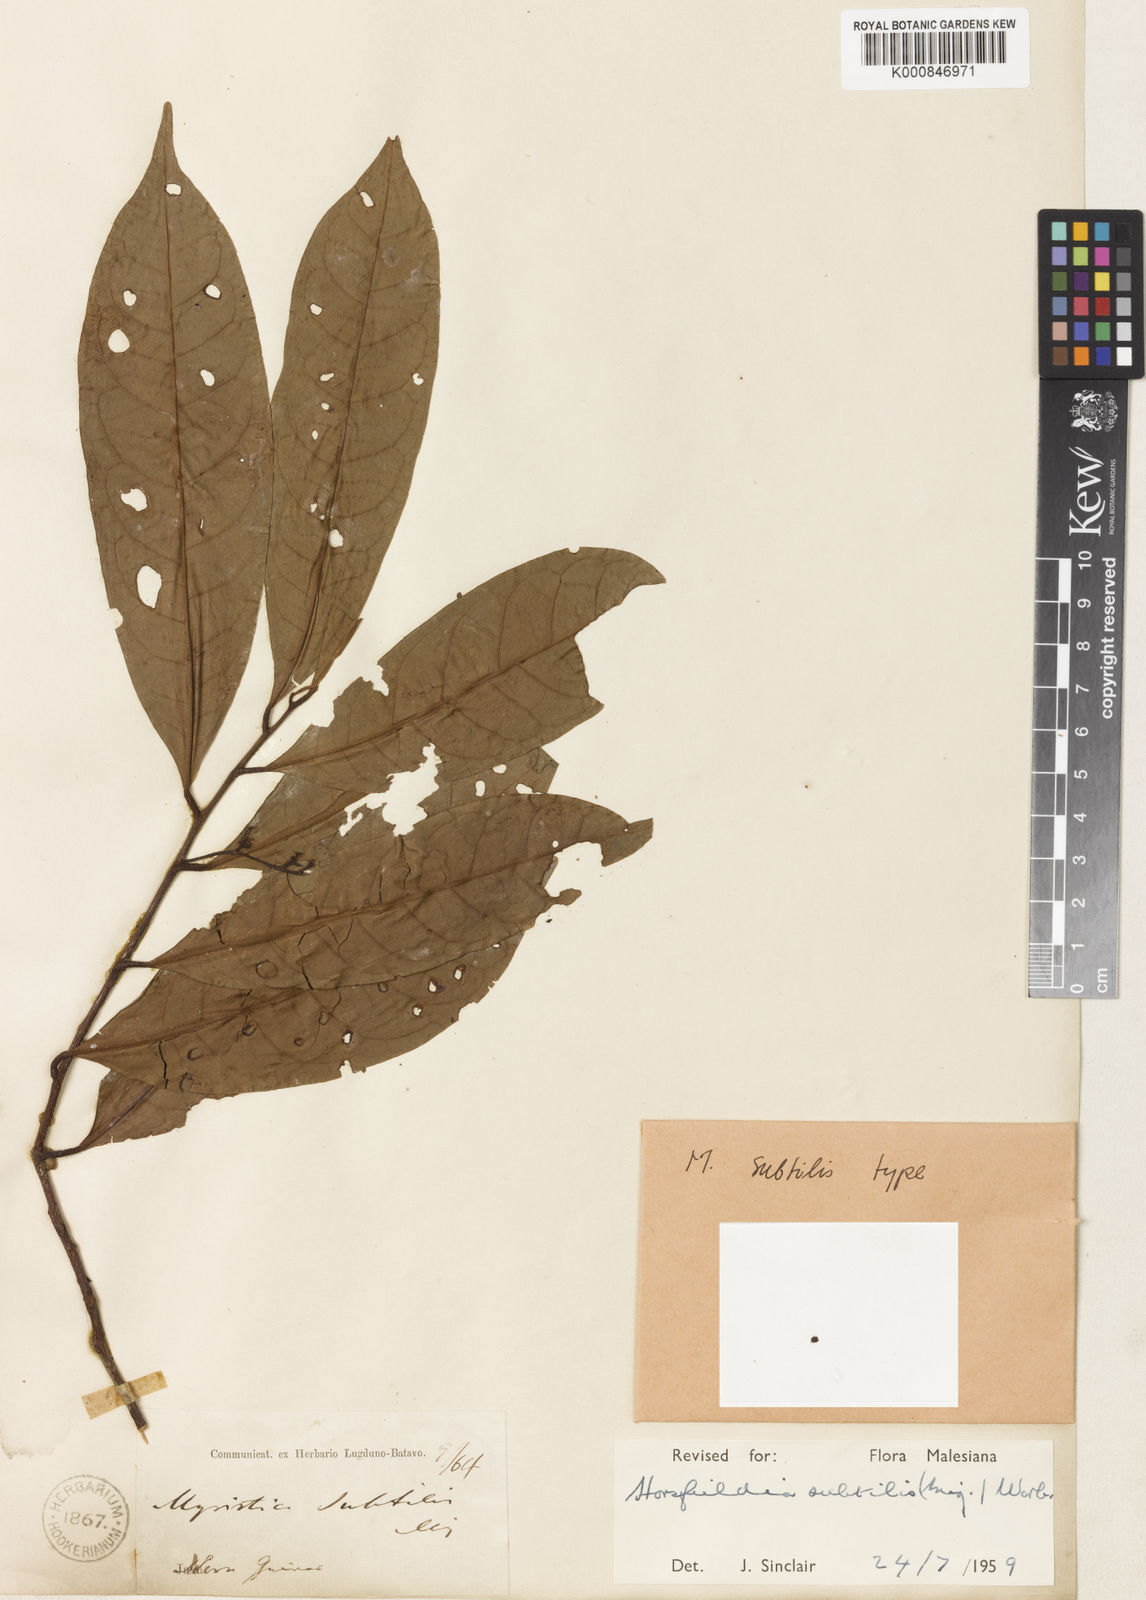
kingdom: Plantae
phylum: Tracheophyta
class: Magnoliopsida
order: Magnoliales
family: Myristicaceae
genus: Horsfieldia
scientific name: Horsfieldia subtilis
